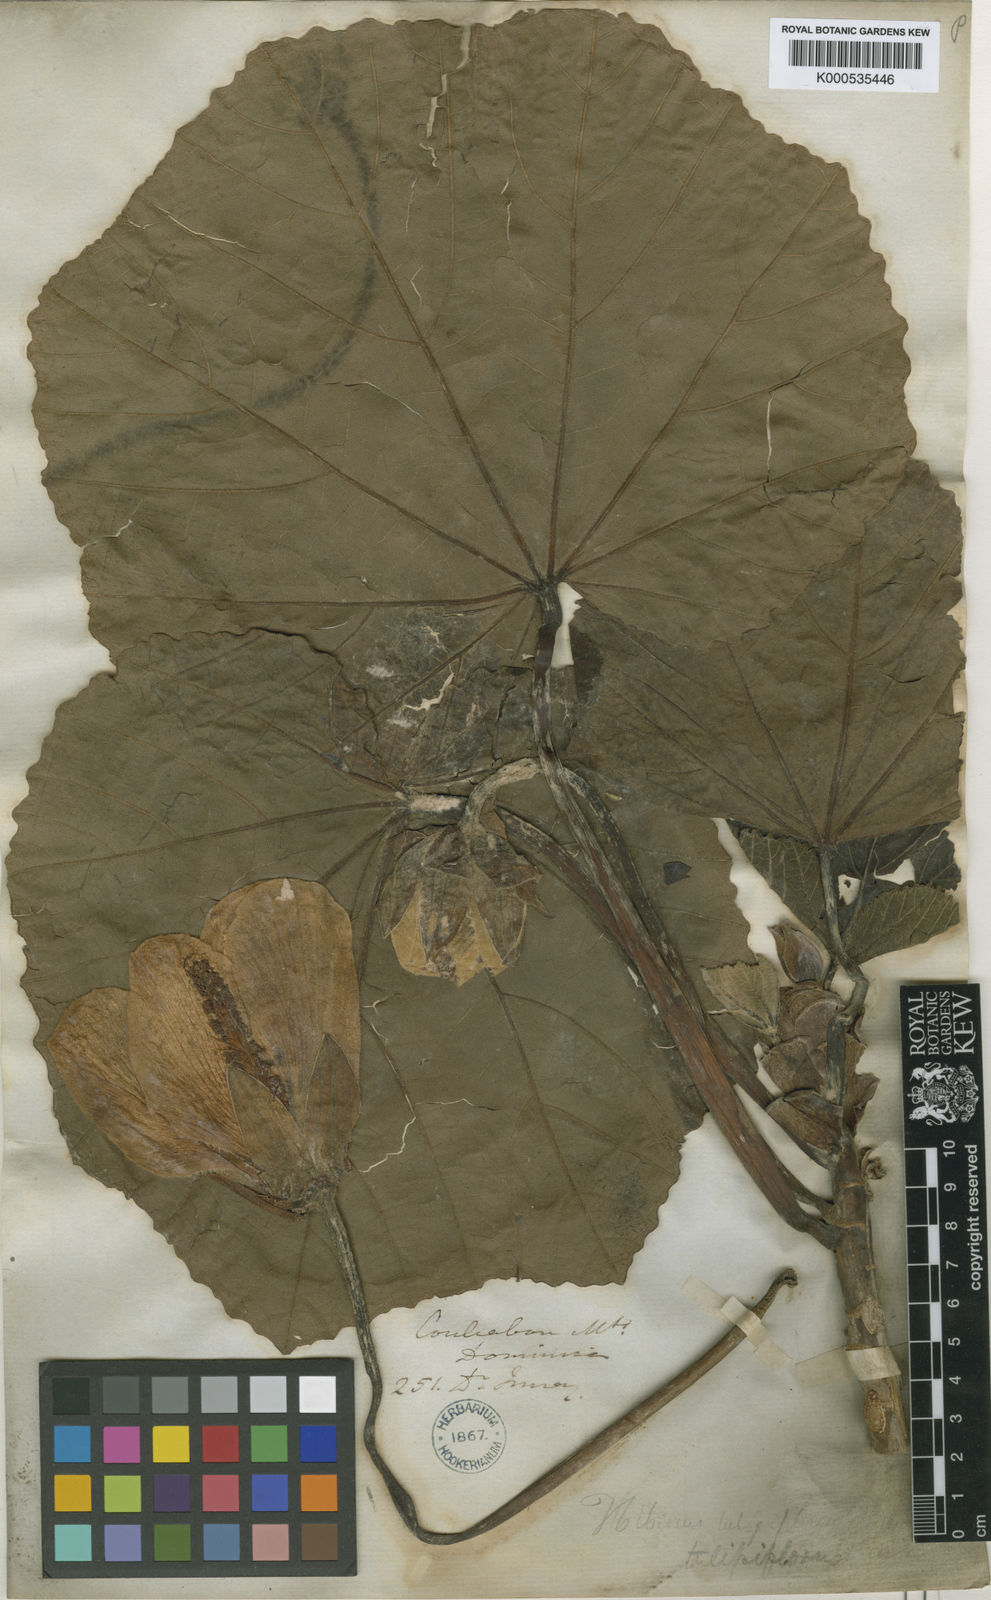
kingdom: Plantae
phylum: Tracheophyta
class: Magnoliopsida
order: Malvales
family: Malvaceae
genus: Wercklea
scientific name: Wercklea tulipiflora
